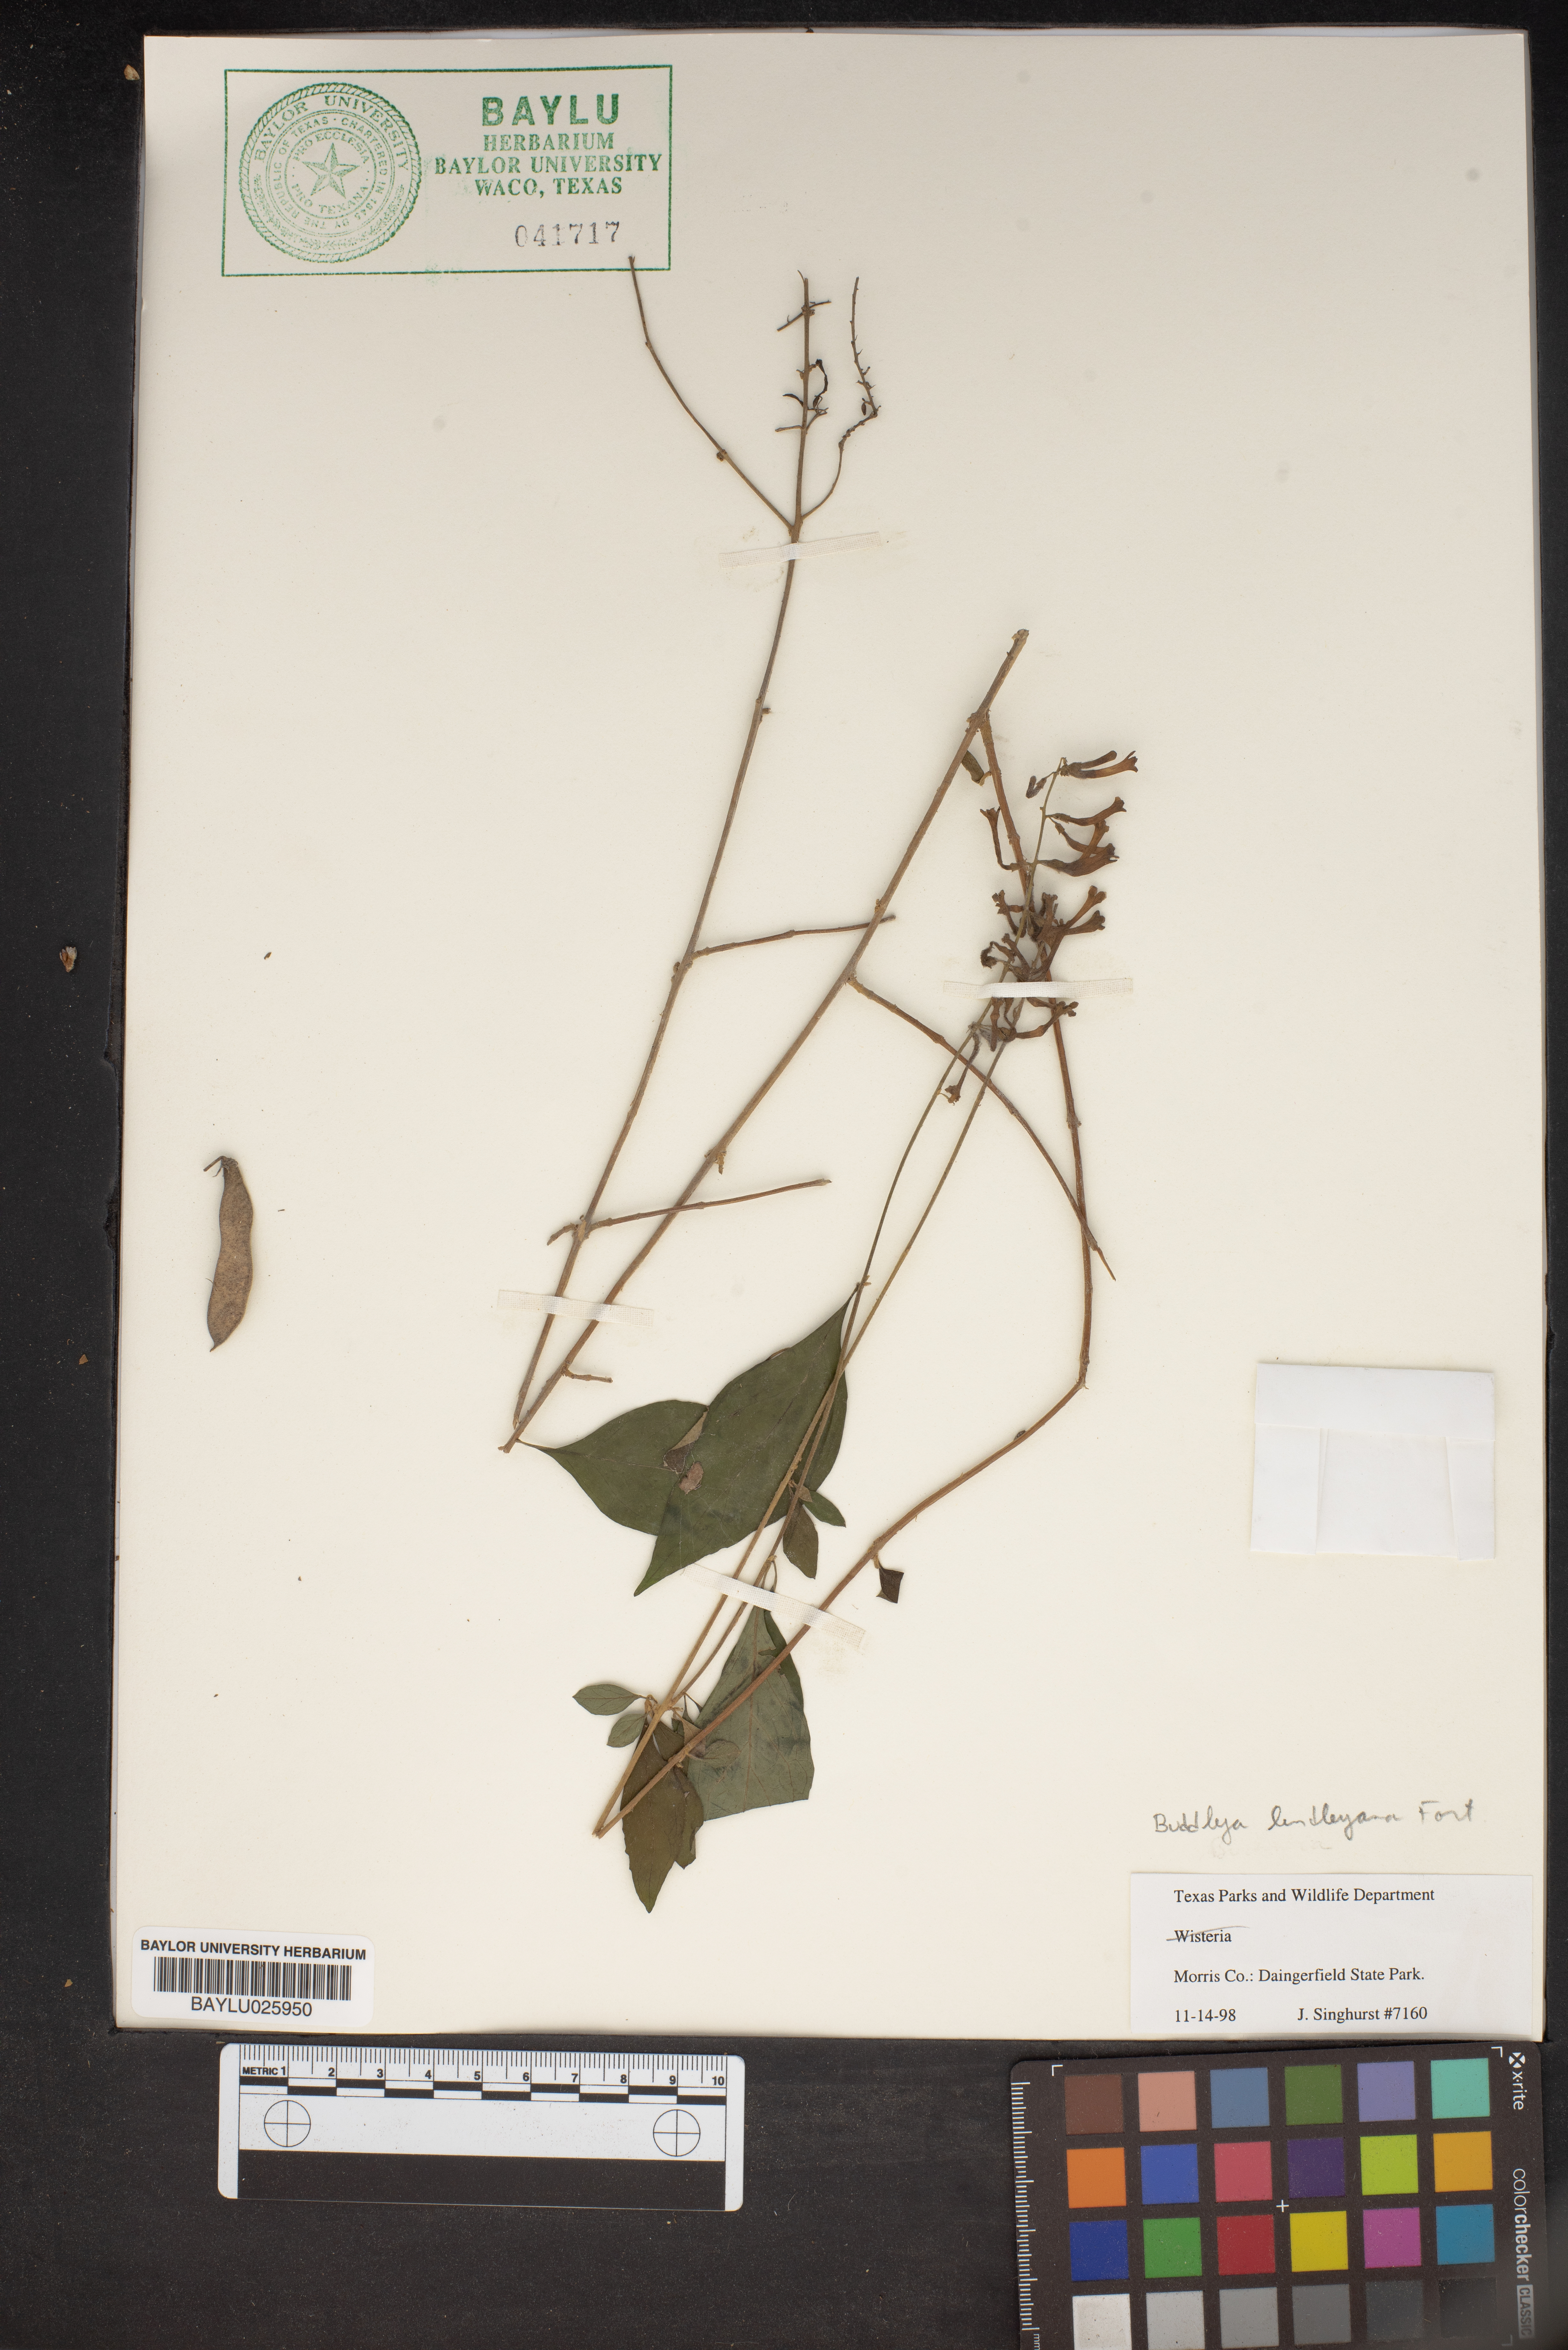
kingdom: Plantae
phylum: Tracheophyta
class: Magnoliopsida
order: Lamiales
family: Scrophulariaceae
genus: Buddleja
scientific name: Buddleja lindleyana
